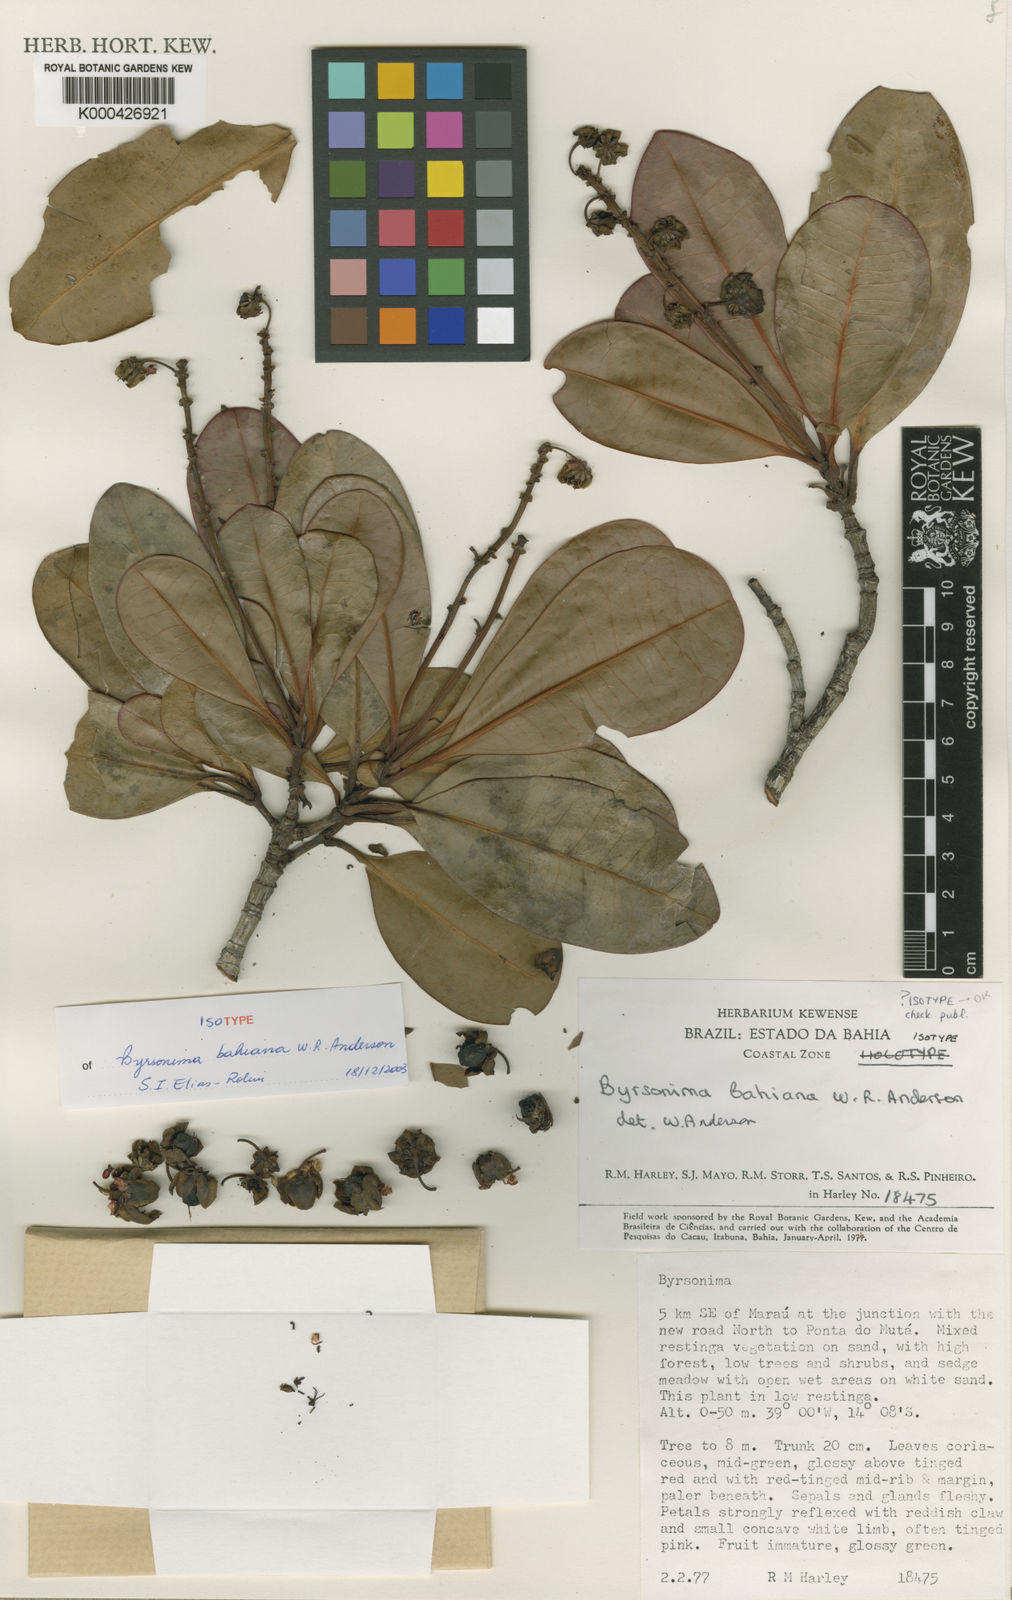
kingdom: Plantae
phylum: Tracheophyta
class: Magnoliopsida
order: Malpighiales
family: Malpighiaceae
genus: Byrsonima
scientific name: Byrsonima bahiana
